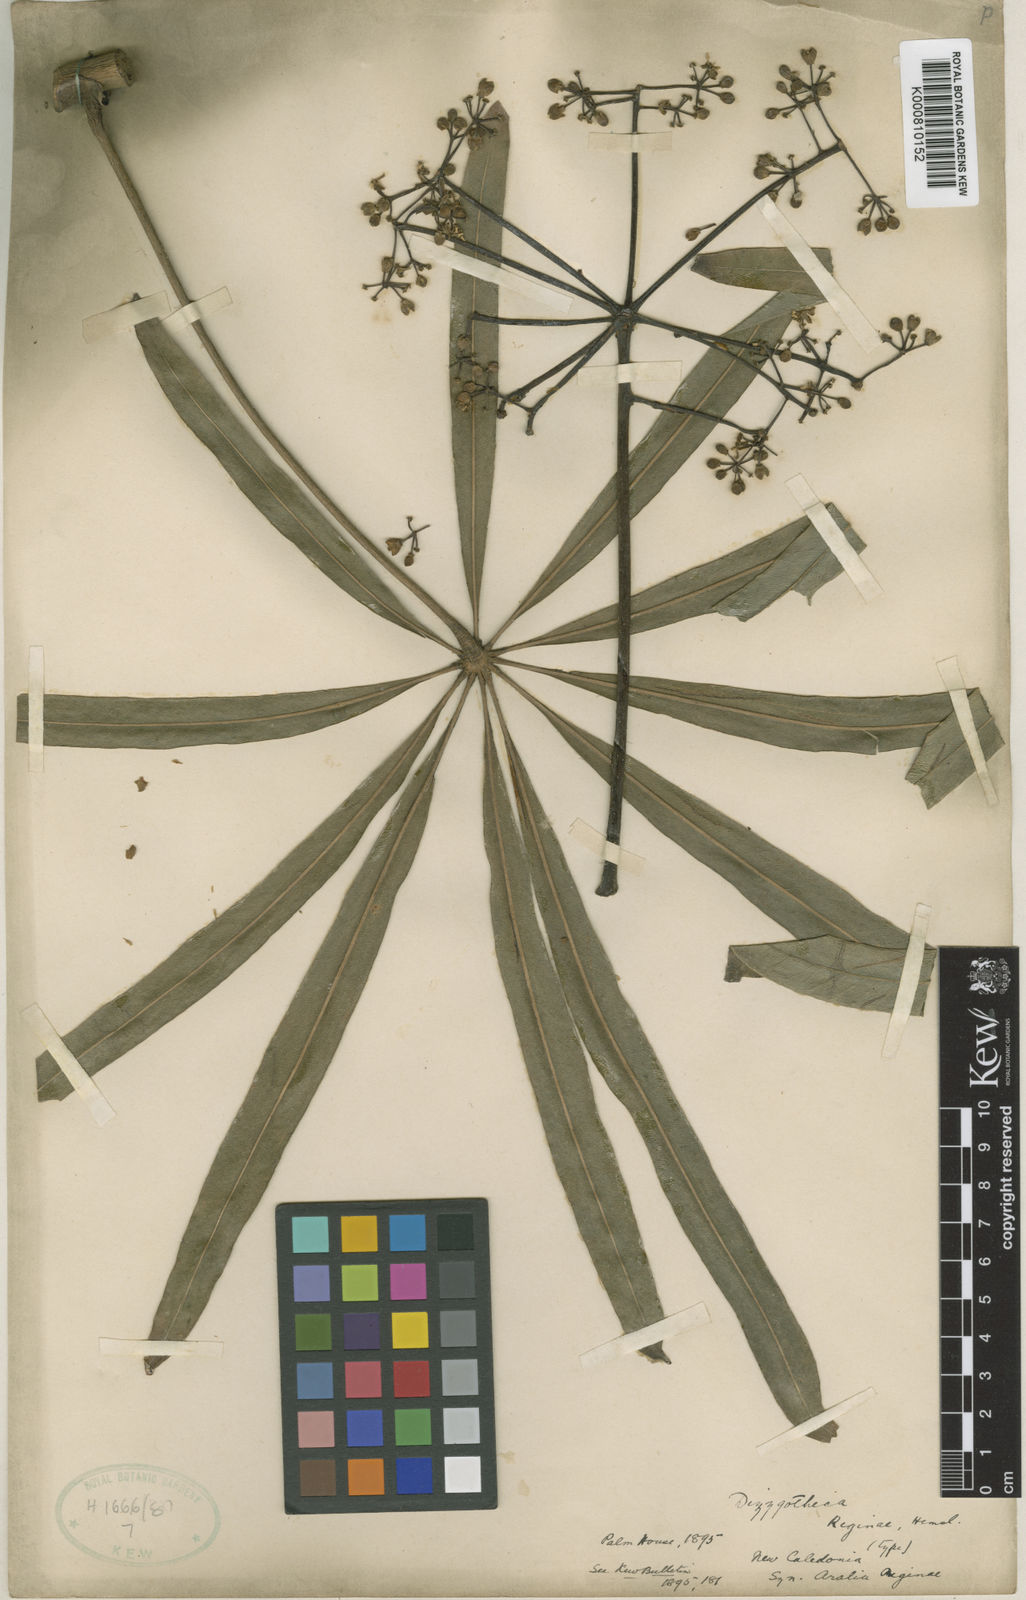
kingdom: Plantae
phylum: Tracheophyta
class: Magnoliopsida
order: Apiales
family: Araliaceae
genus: Plerandra
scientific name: Plerandra reginae
